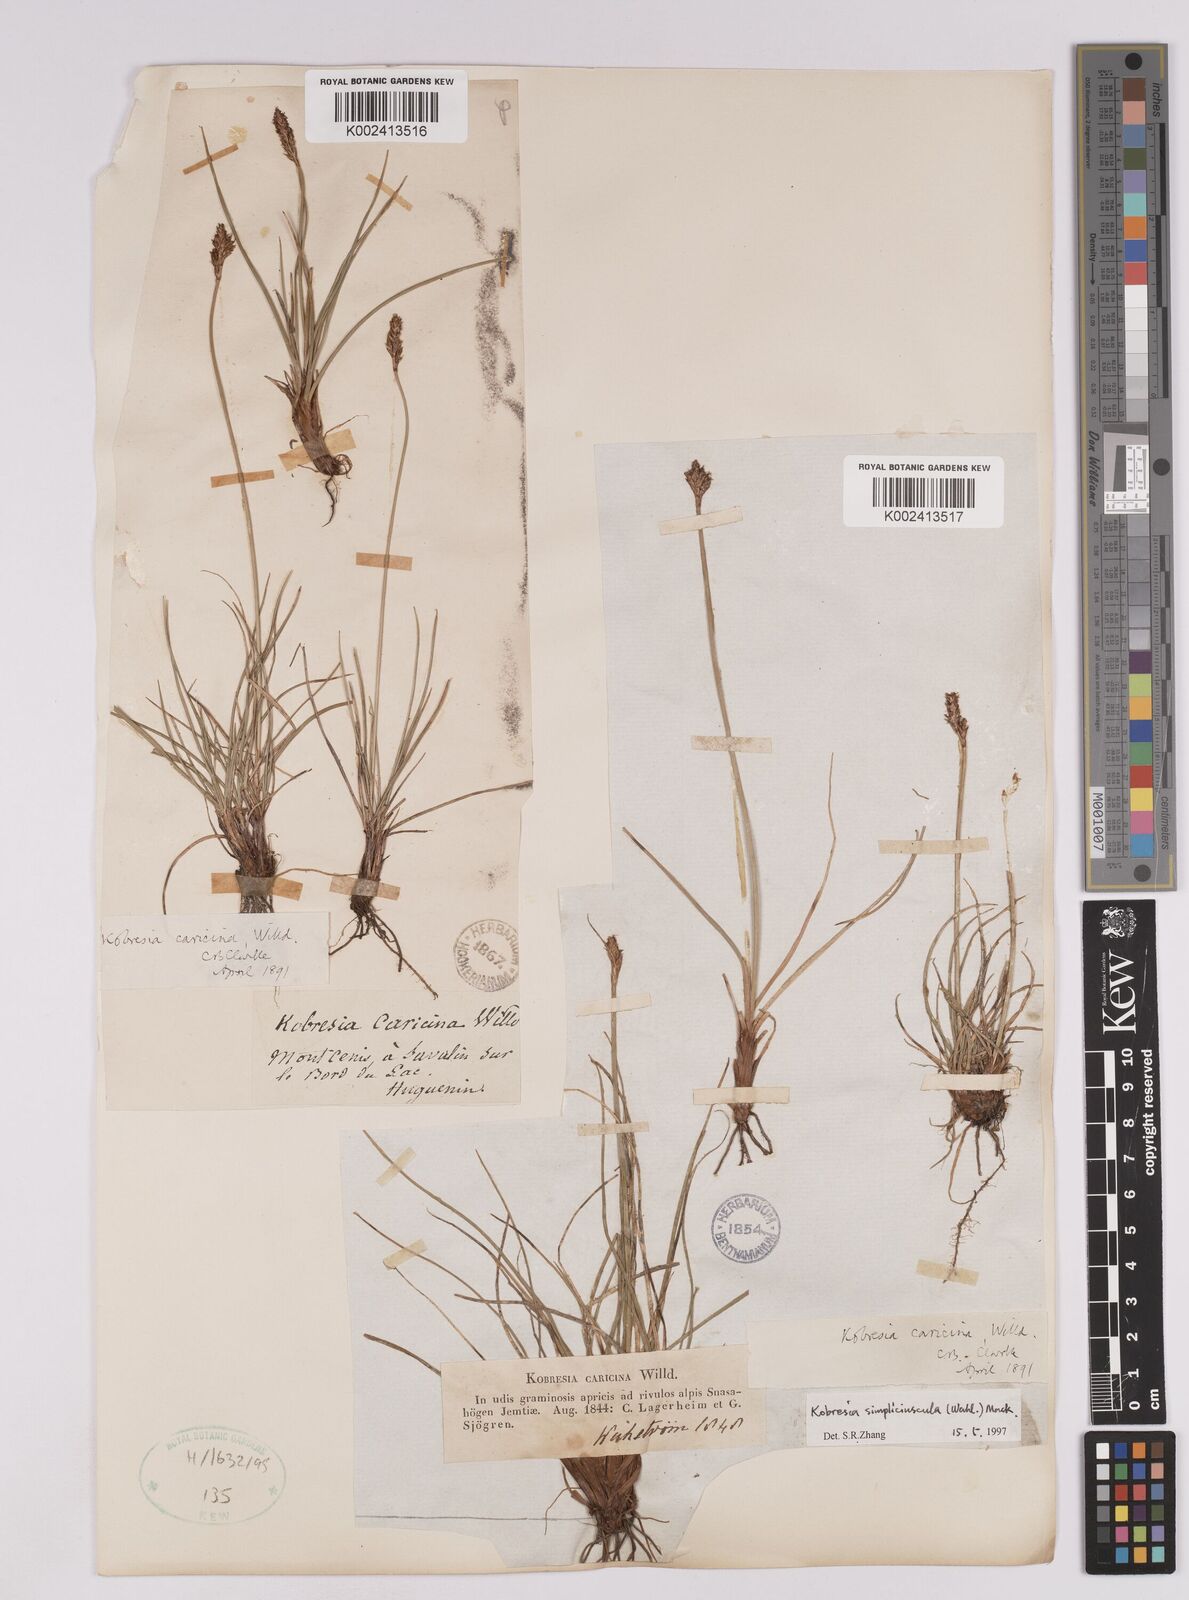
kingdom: Plantae
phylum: Tracheophyta
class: Liliopsida
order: Poales
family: Cyperaceae
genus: Carex
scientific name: Carex simpliciuscula
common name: Simple bog sedge
